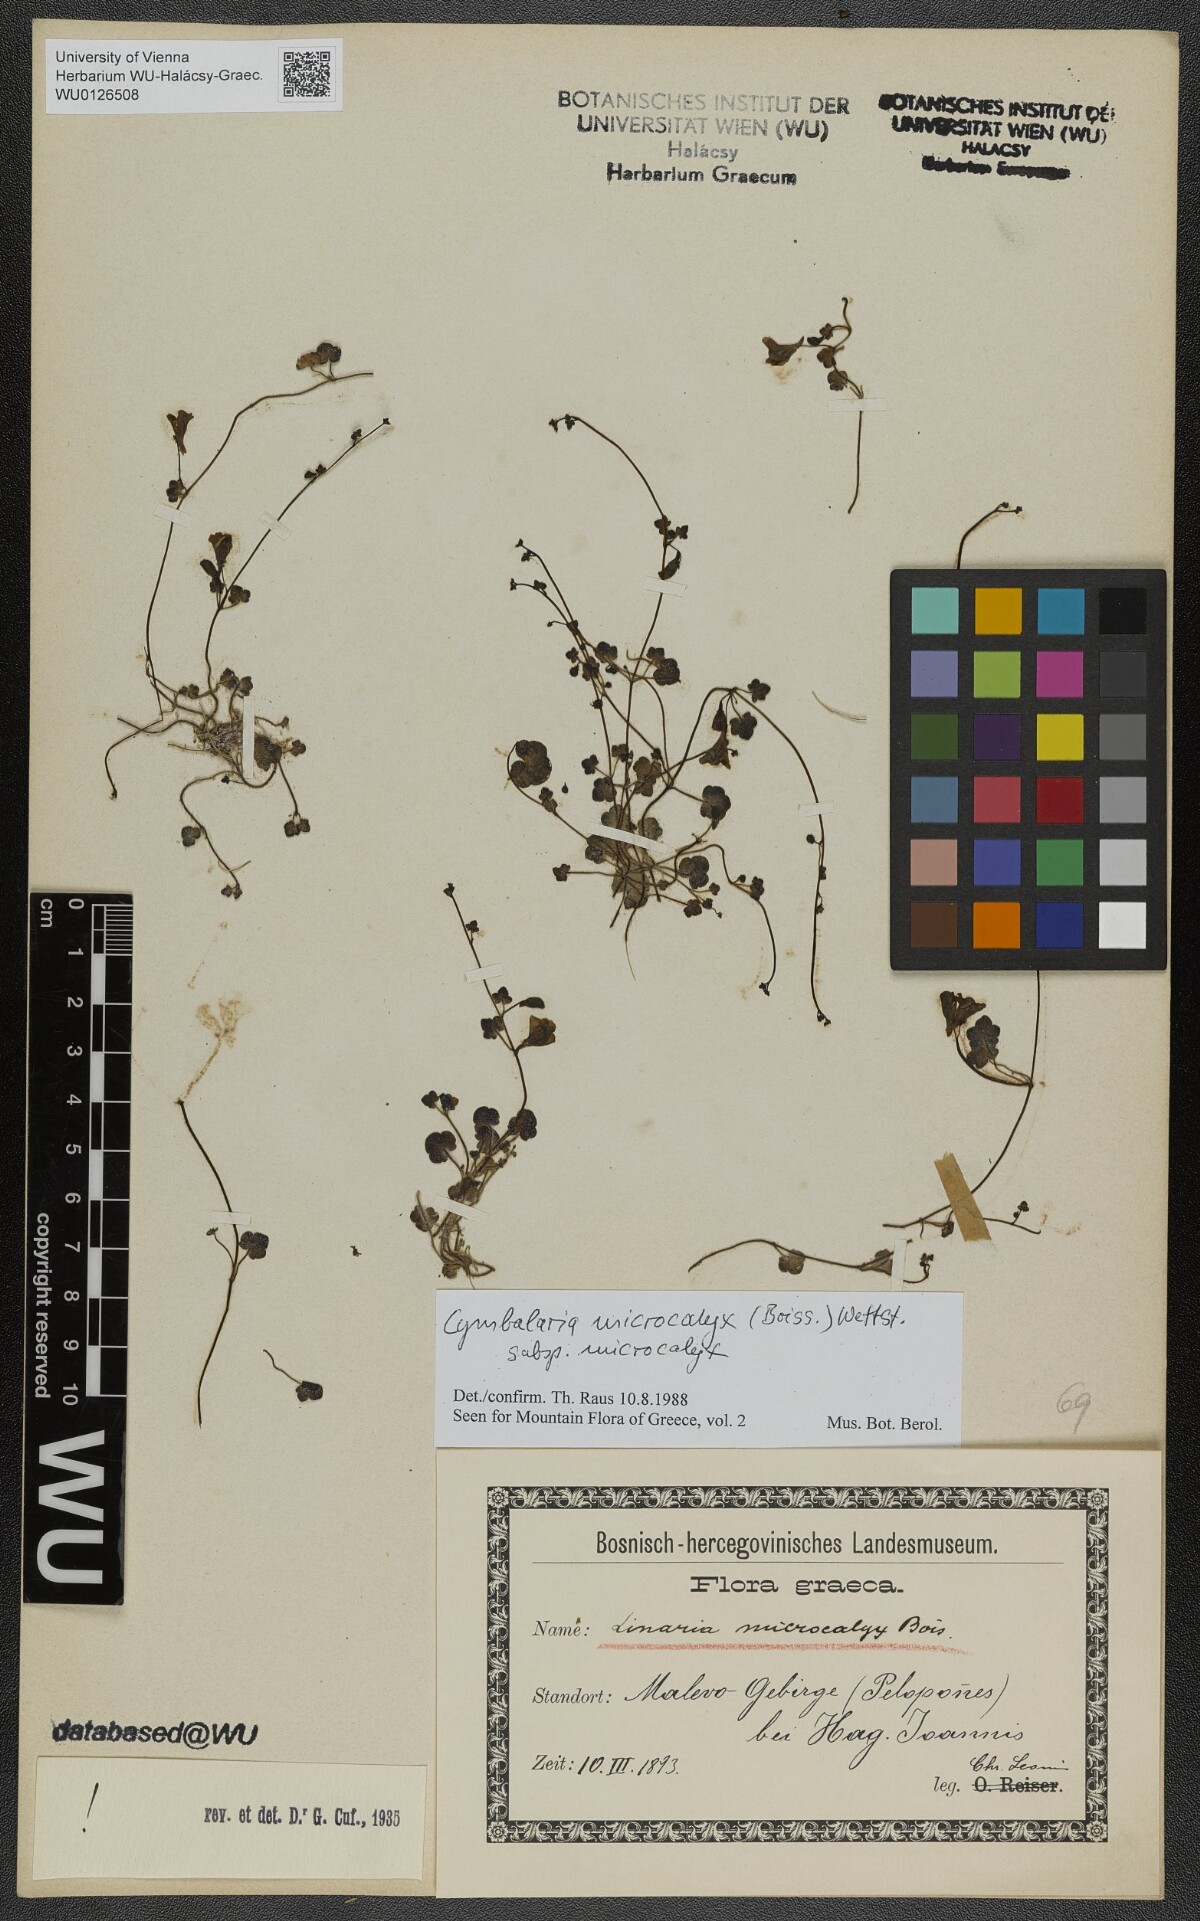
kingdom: Plantae
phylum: Tracheophyta
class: Magnoliopsida
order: Lamiales
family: Plantaginaceae
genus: Cymbalaria
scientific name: Cymbalaria microcalyx
